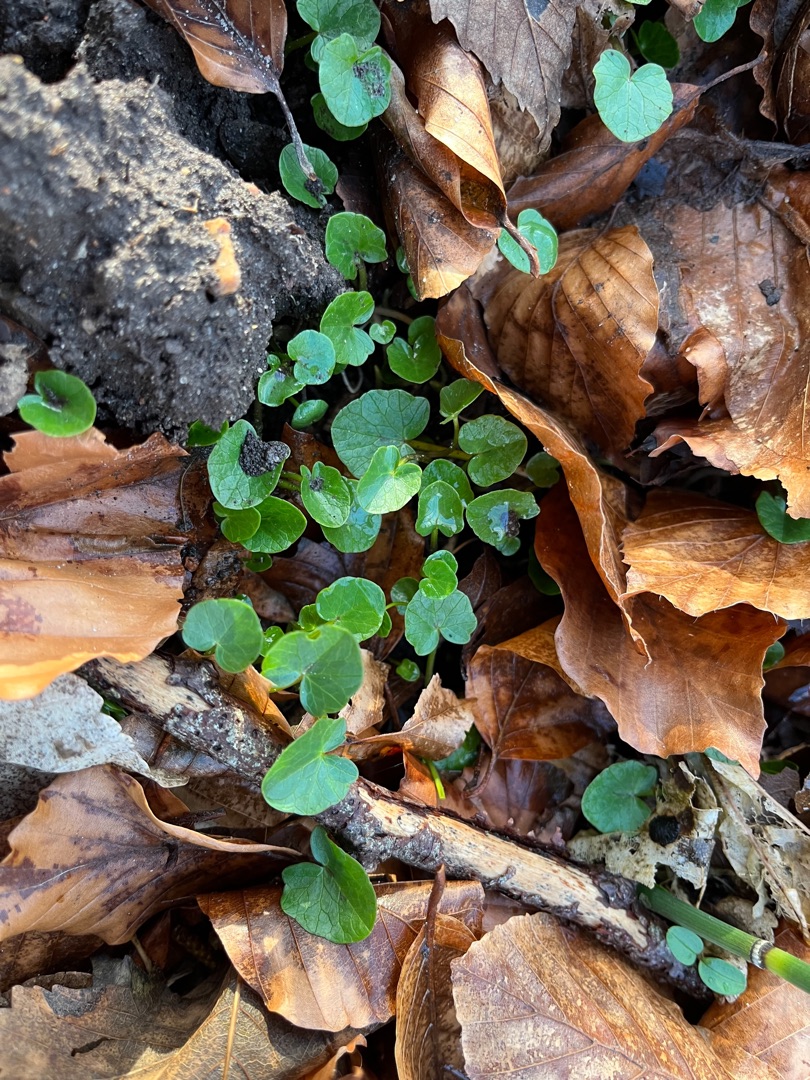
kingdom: Plantae
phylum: Tracheophyta
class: Magnoliopsida
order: Ranunculales
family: Ranunculaceae
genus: Ficaria
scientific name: Ficaria verna
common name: Vorterod
